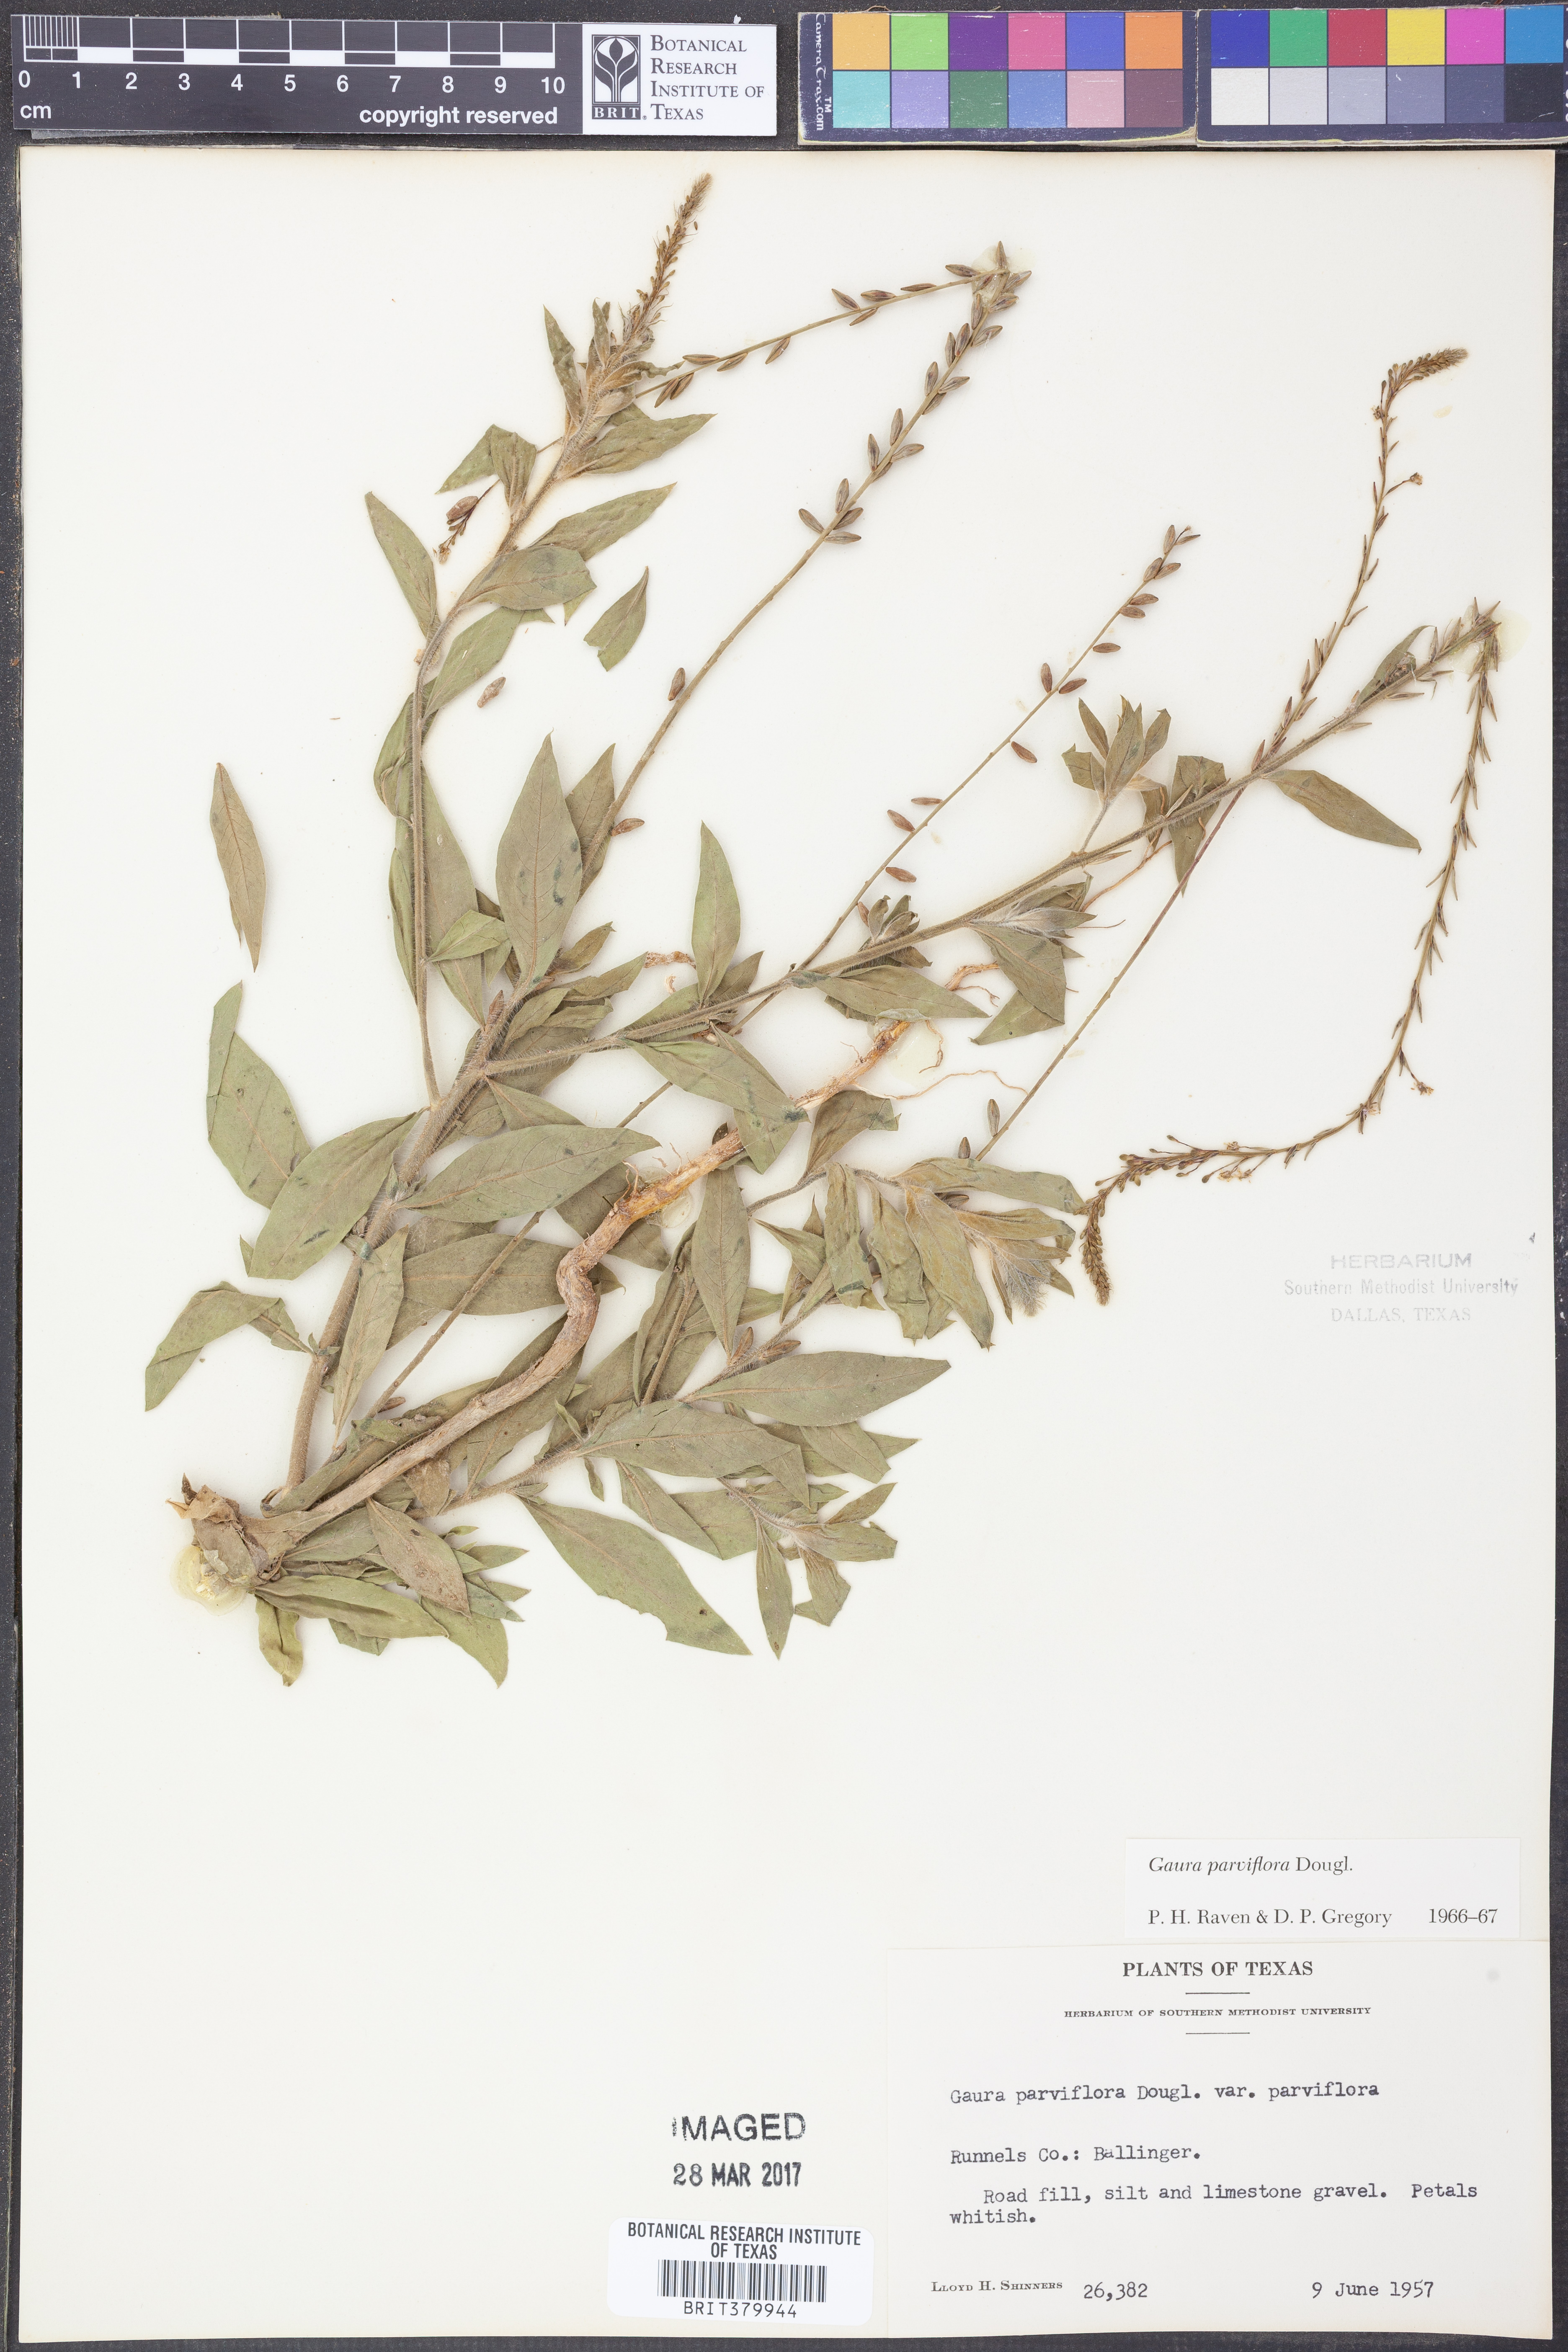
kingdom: Plantae
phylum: Tracheophyta
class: Magnoliopsida
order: Myrtales
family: Onagraceae
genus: Oenothera
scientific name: Oenothera curtiflora
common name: Velvetweed
